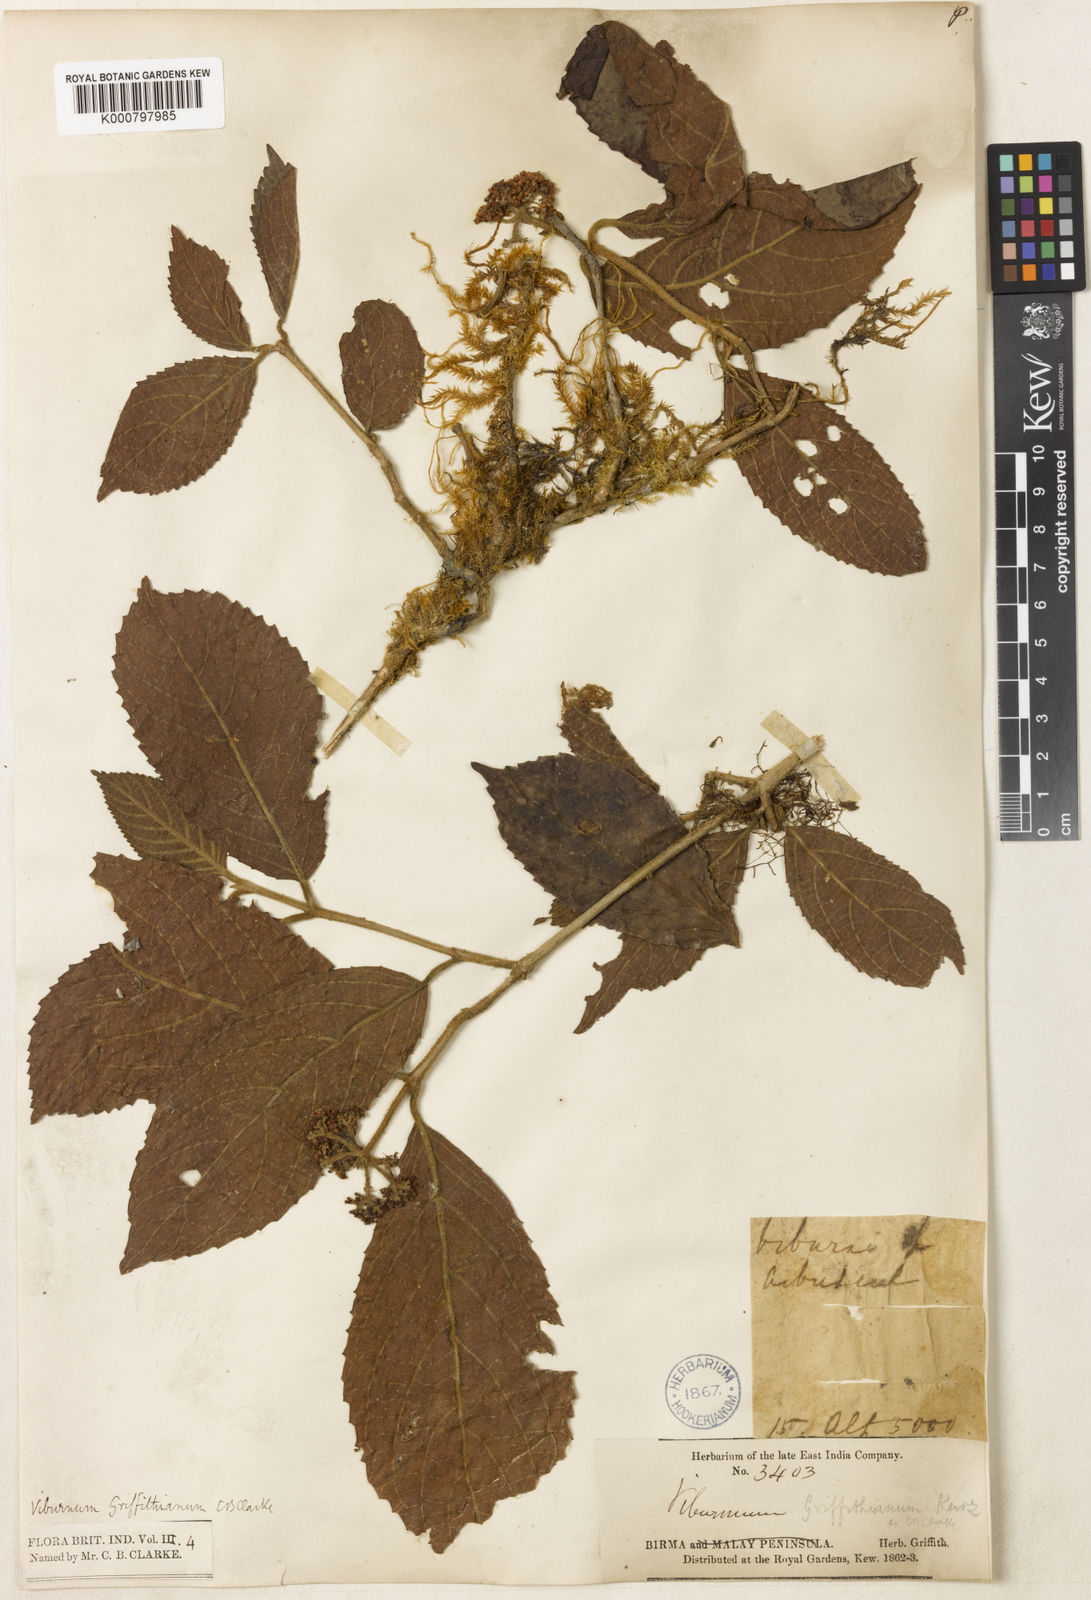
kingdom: Plantae
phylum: Tracheophyta
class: Magnoliopsida
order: Dipsacales
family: Viburnaceae
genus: Viburnum
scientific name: Viburnum griffithianum
